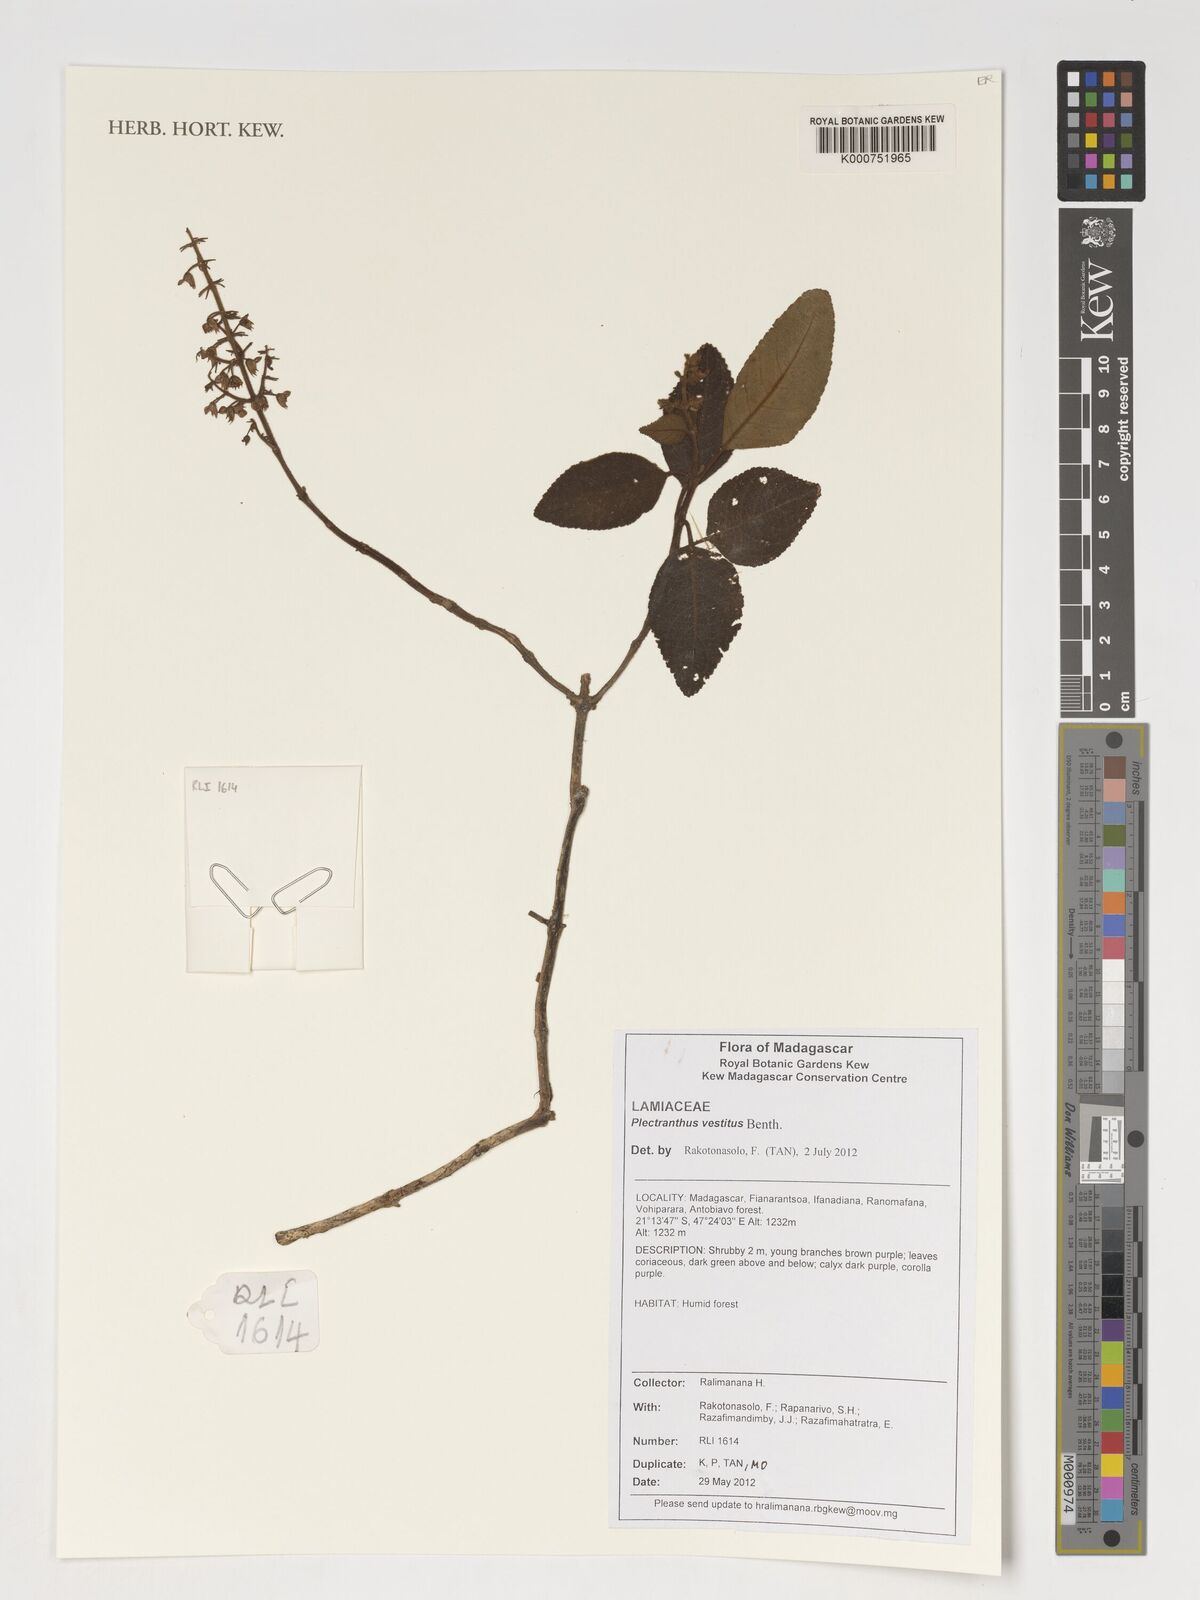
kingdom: Plantae
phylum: Tracheophyta
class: Magnoliopsida
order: Lamiales
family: Lamiaceae
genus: Plectranthus
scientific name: Plectranthus vestitus
